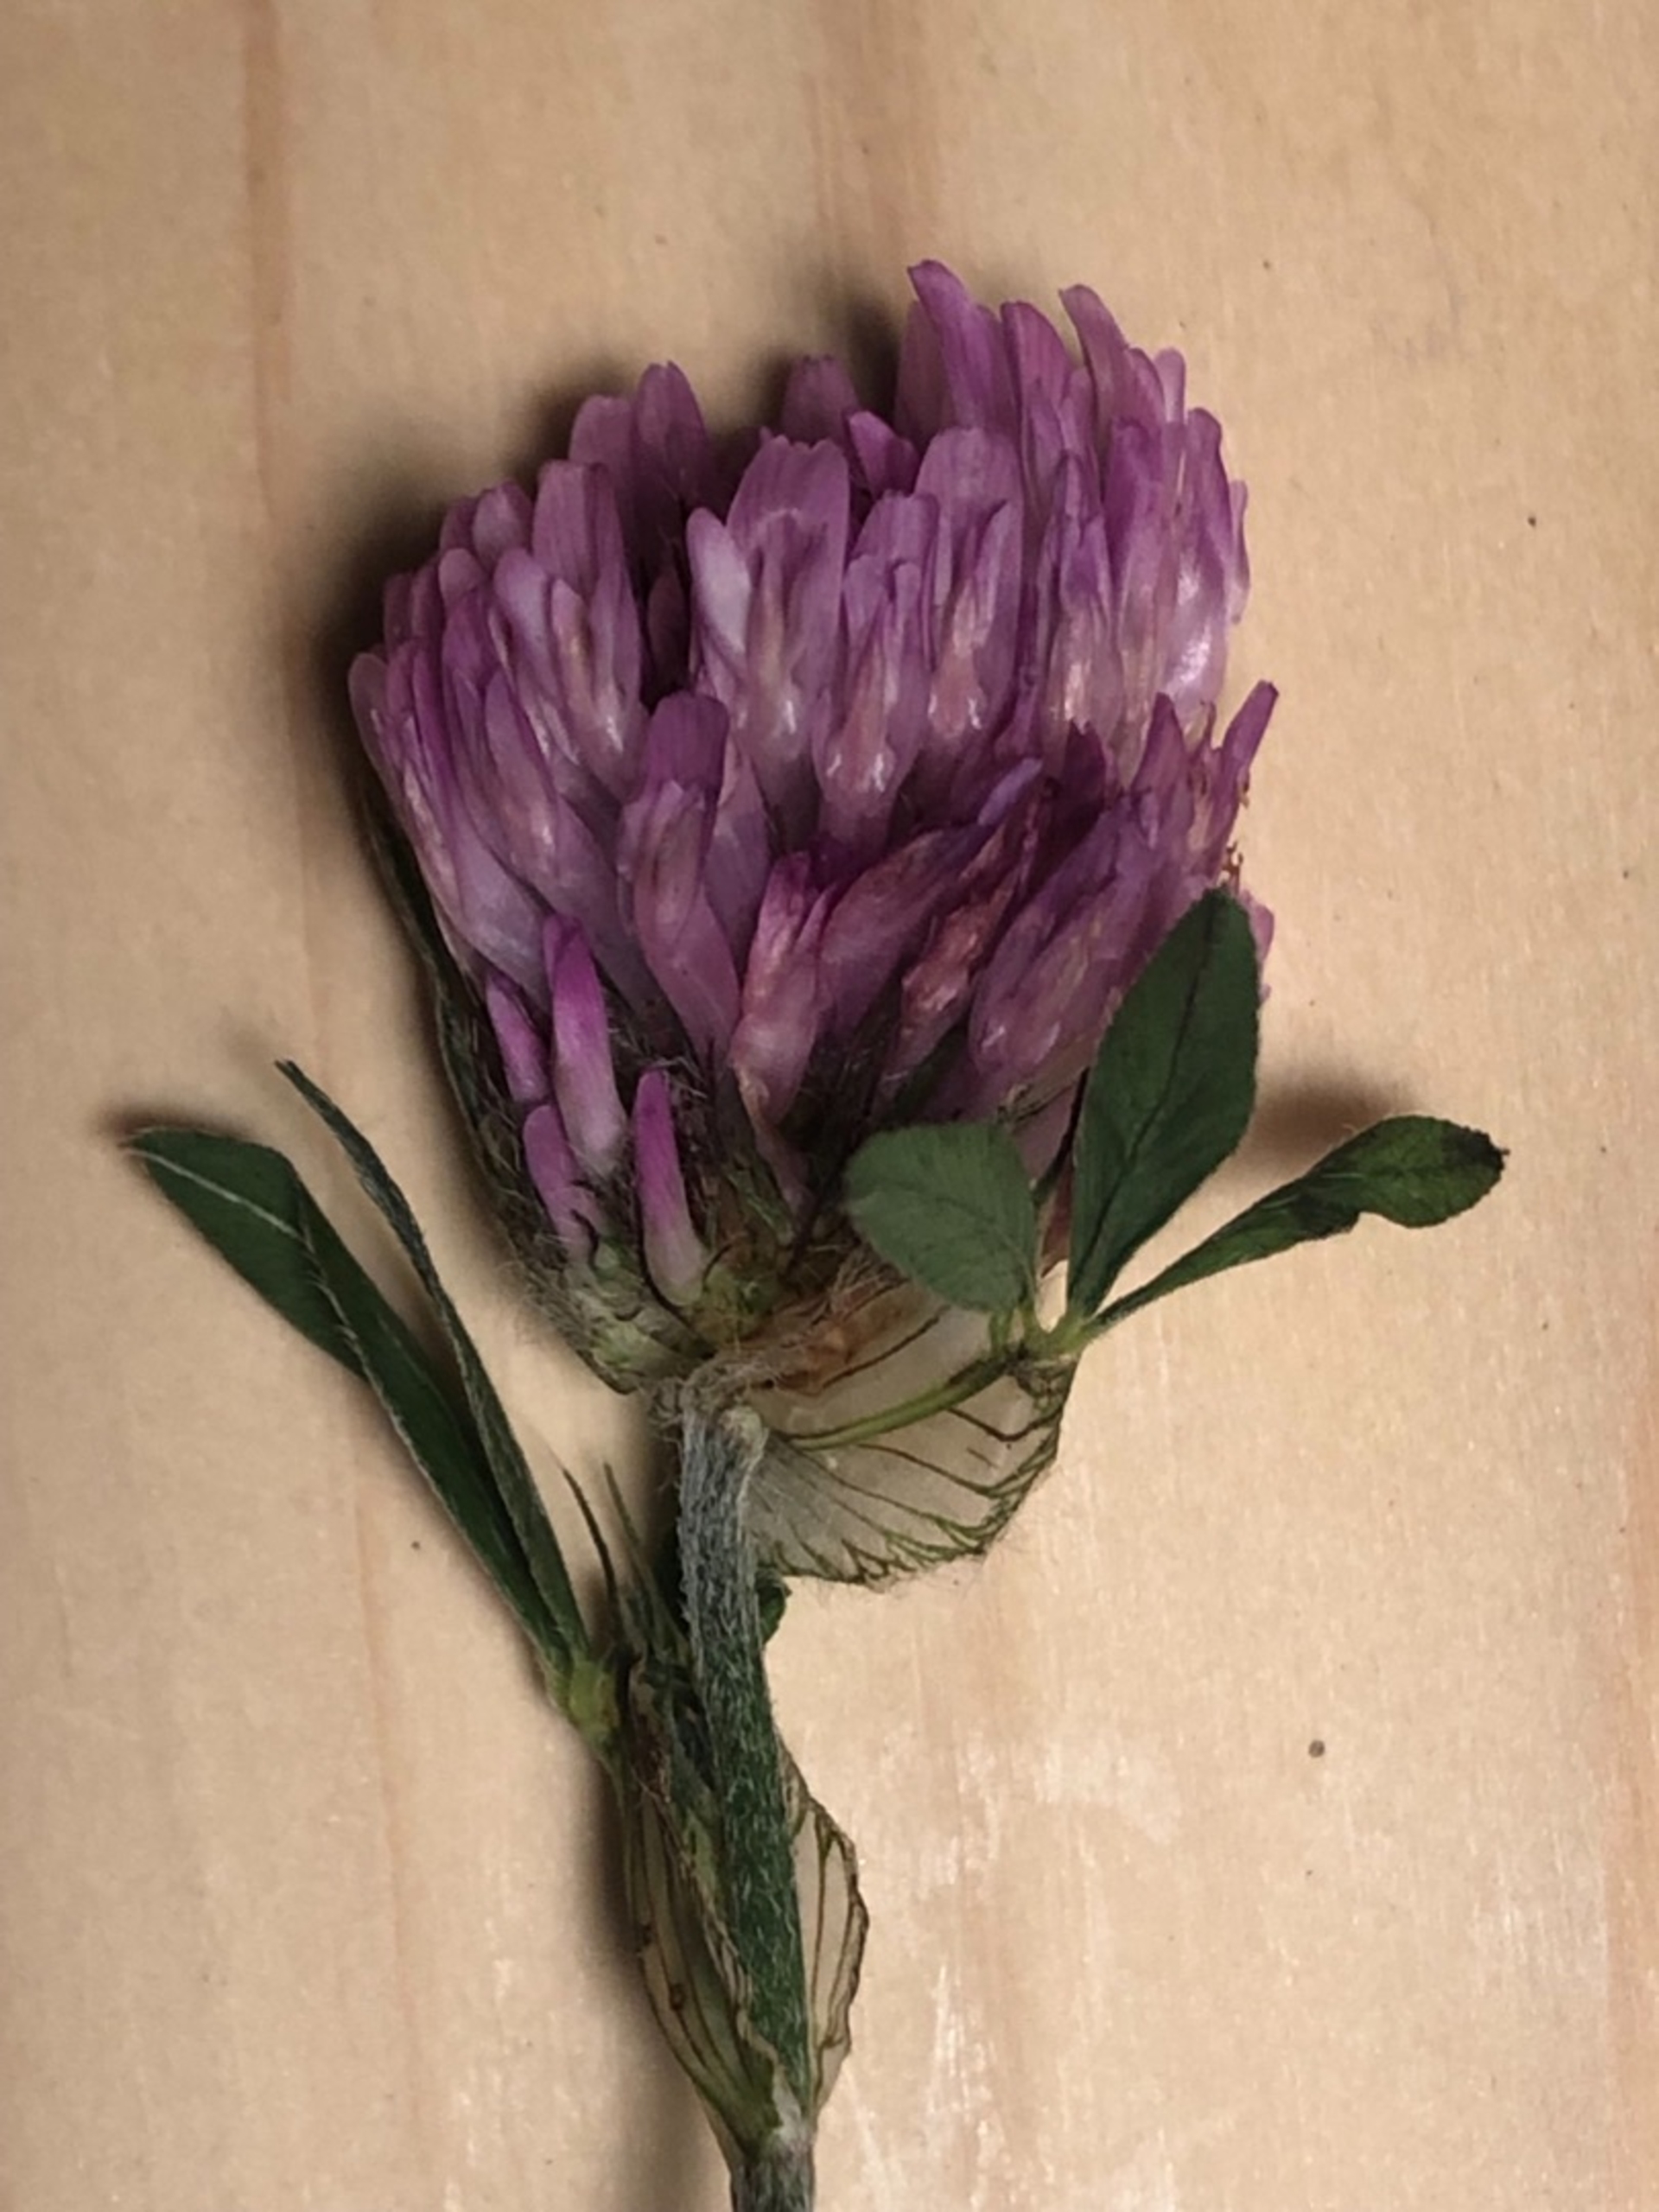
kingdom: Plantae
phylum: Tracheophyta
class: Magnoliopsida
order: Fabales
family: Fabaceae
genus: Trifolium
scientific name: Trifolium pratense
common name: Rød-kløver
